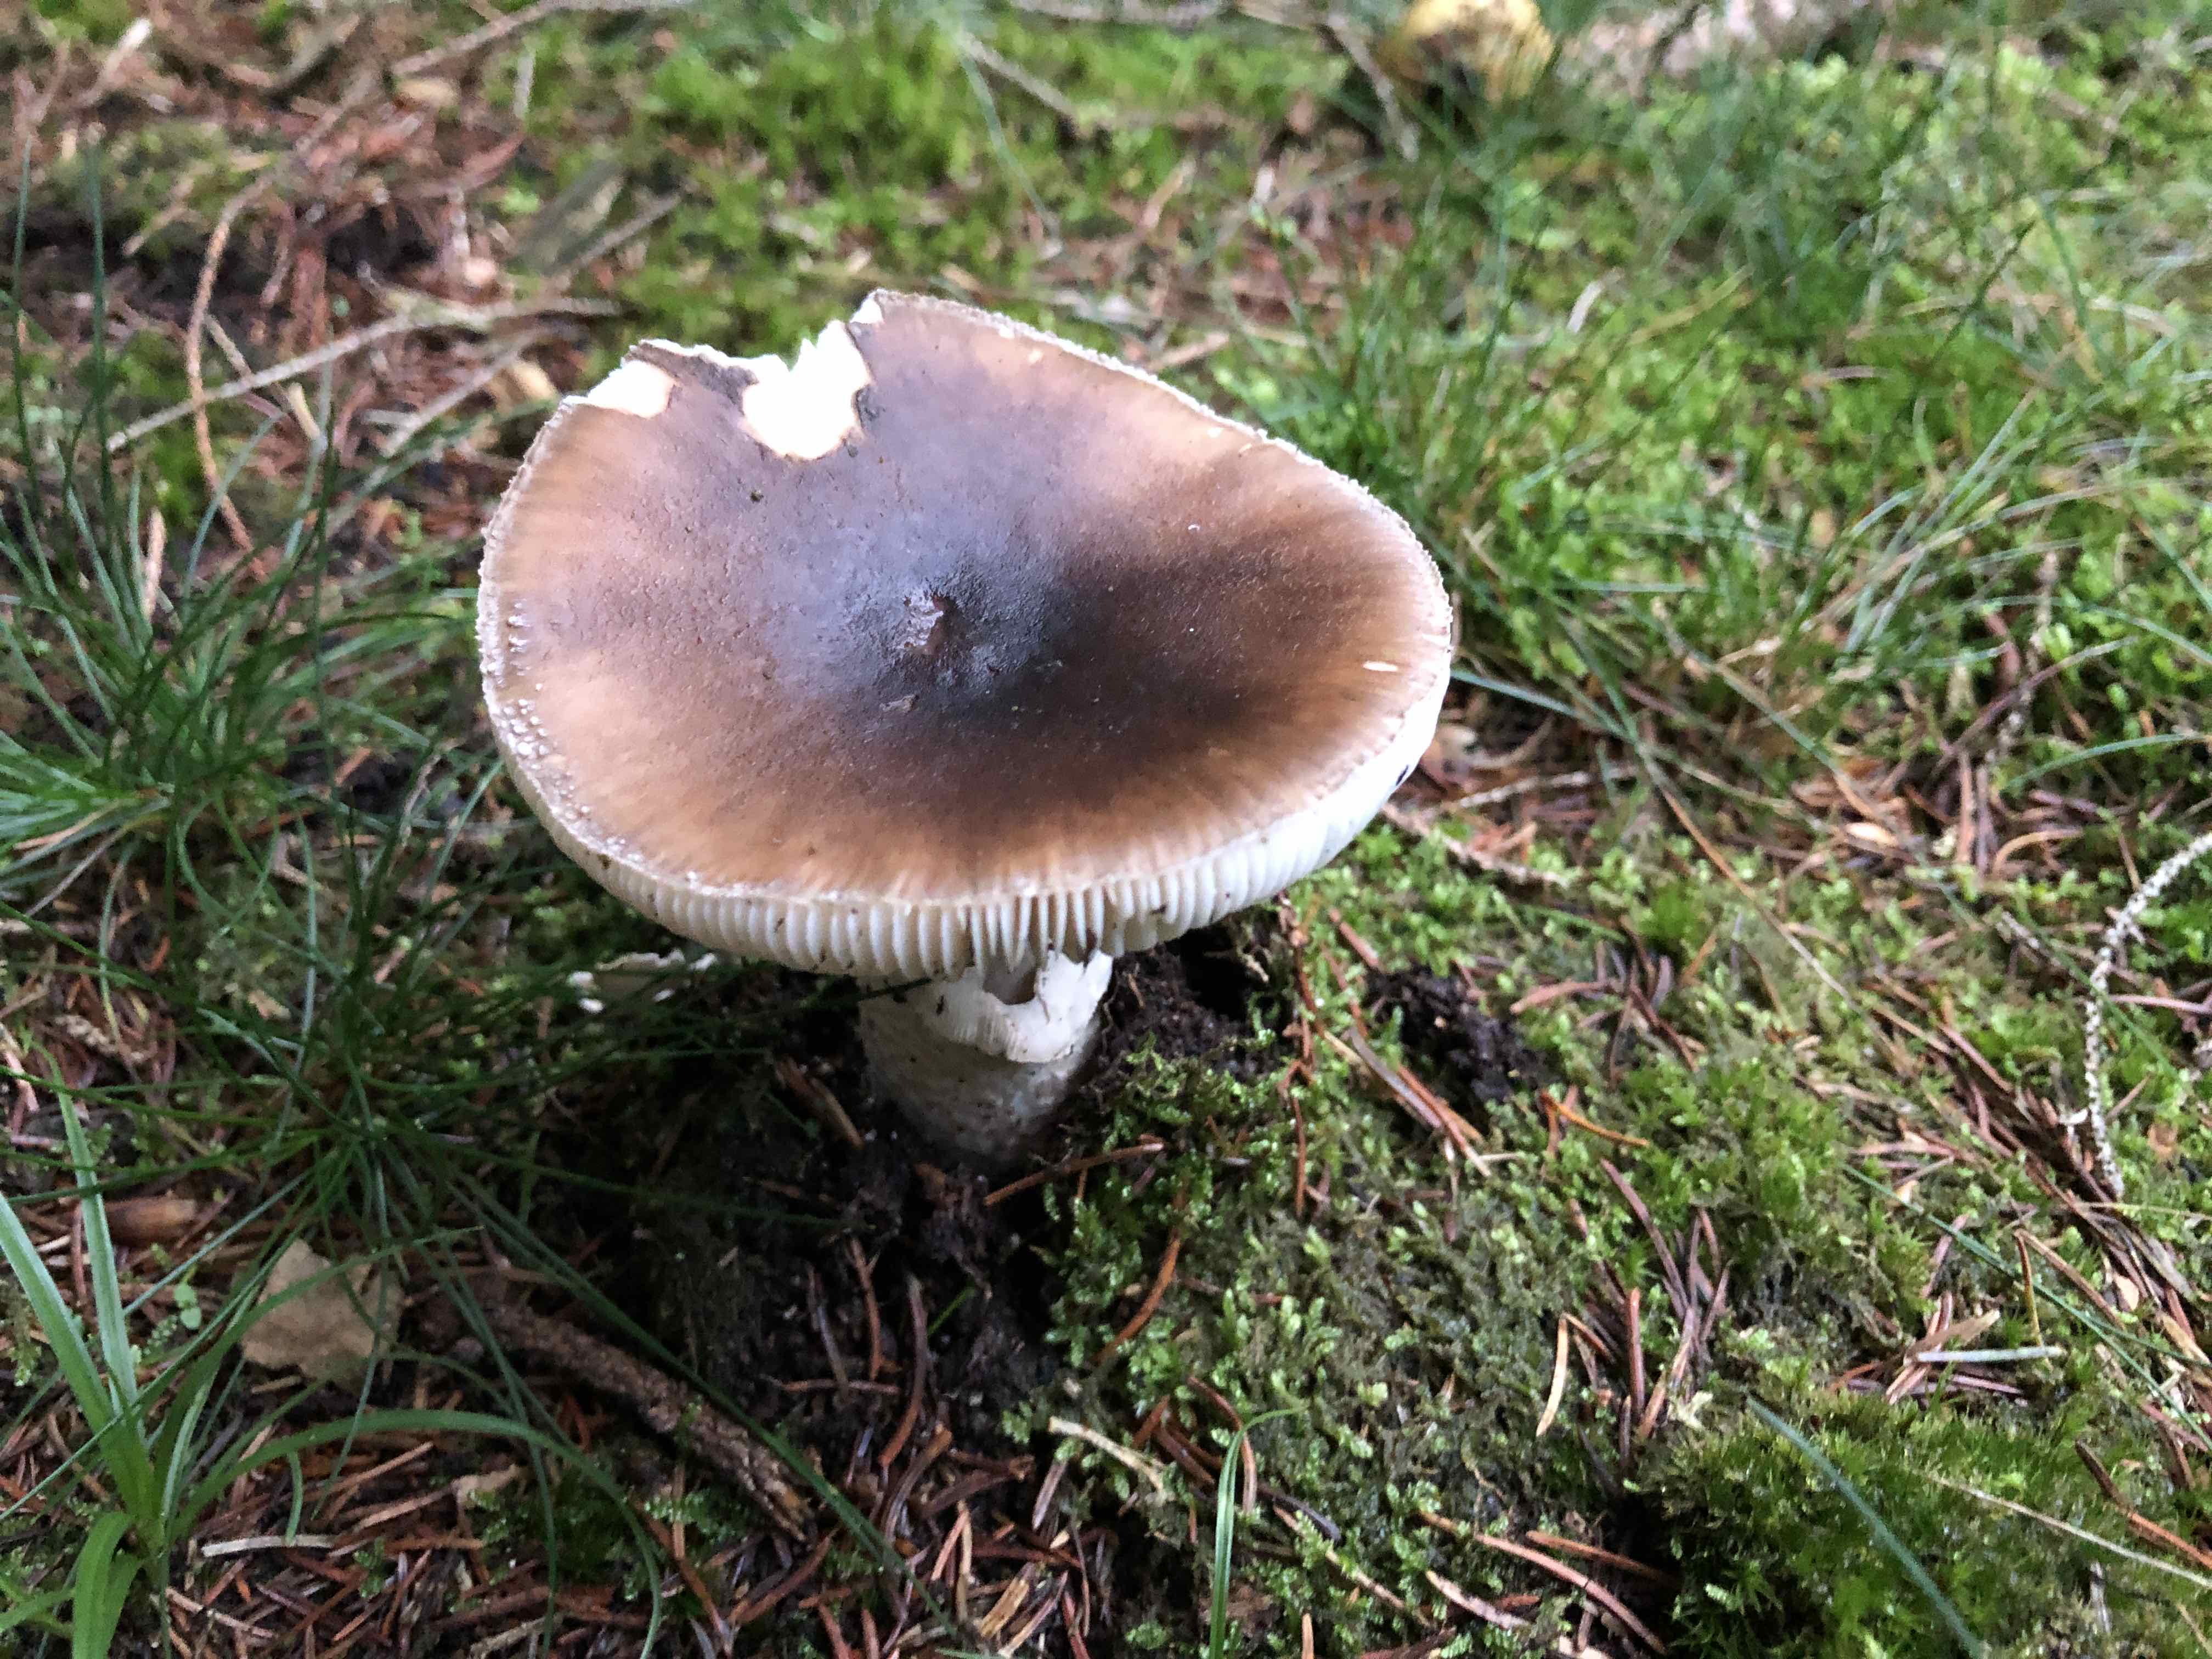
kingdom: Fungi
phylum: Basidiomycota
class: Agaricomycetes
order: Agaricales
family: Amanitaceae
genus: Amanita
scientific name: Amanita porphyria
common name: porfyr-fluesvamp
